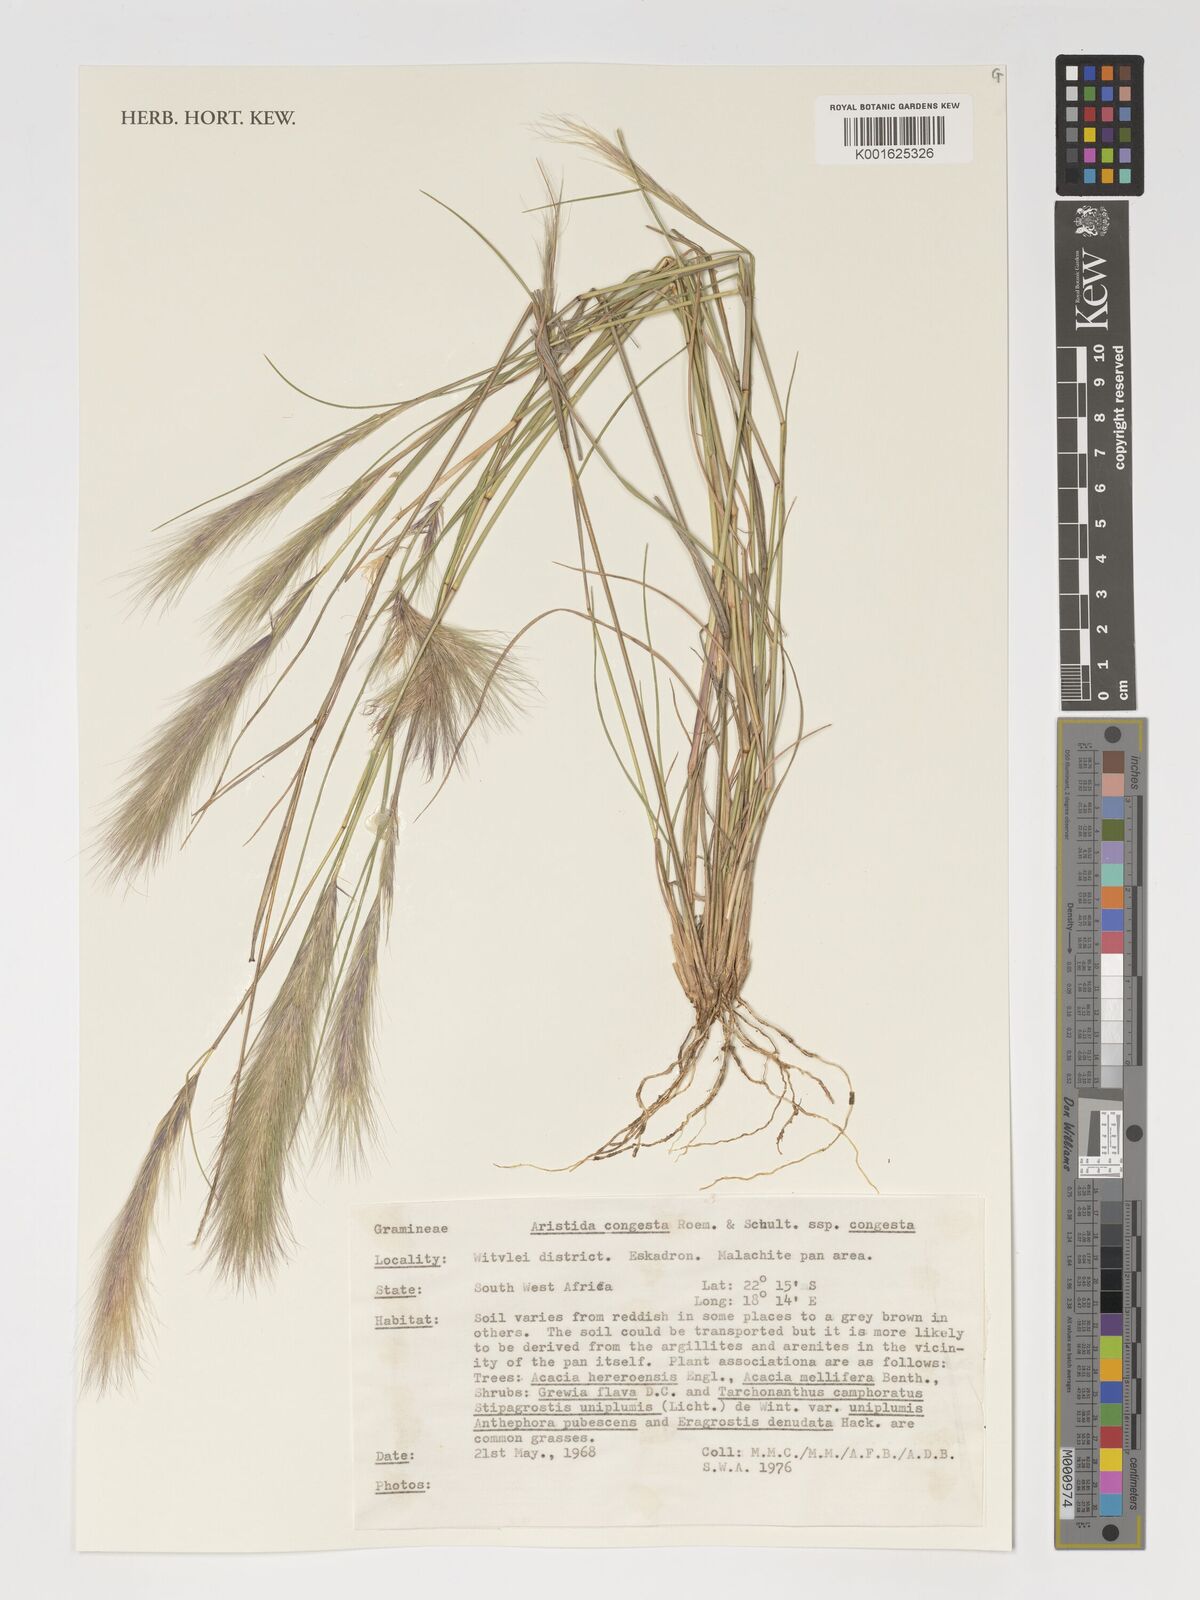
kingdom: Plantae
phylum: Tracheophyta
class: Liliopsida
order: Poales
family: Poaceae
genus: Aristida
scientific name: Aristida congesta
